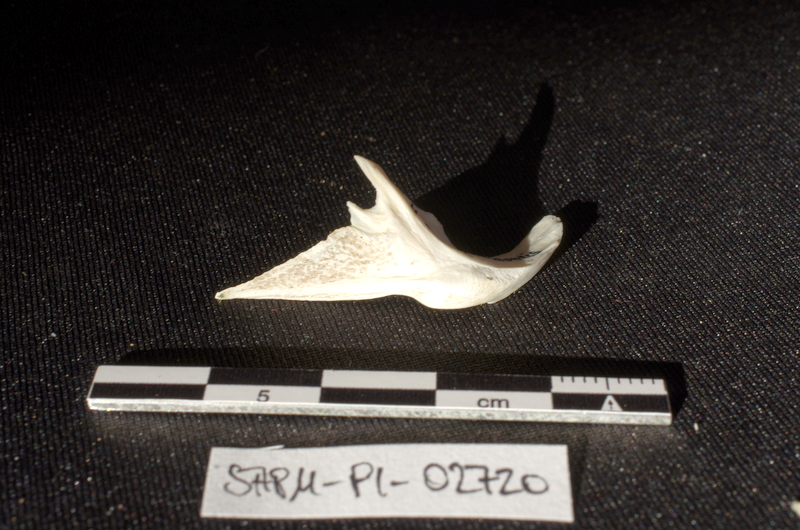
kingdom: Animalia
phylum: Chordata
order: Siluriformes
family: Mochokidae
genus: Synodontis
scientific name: Synodontis
